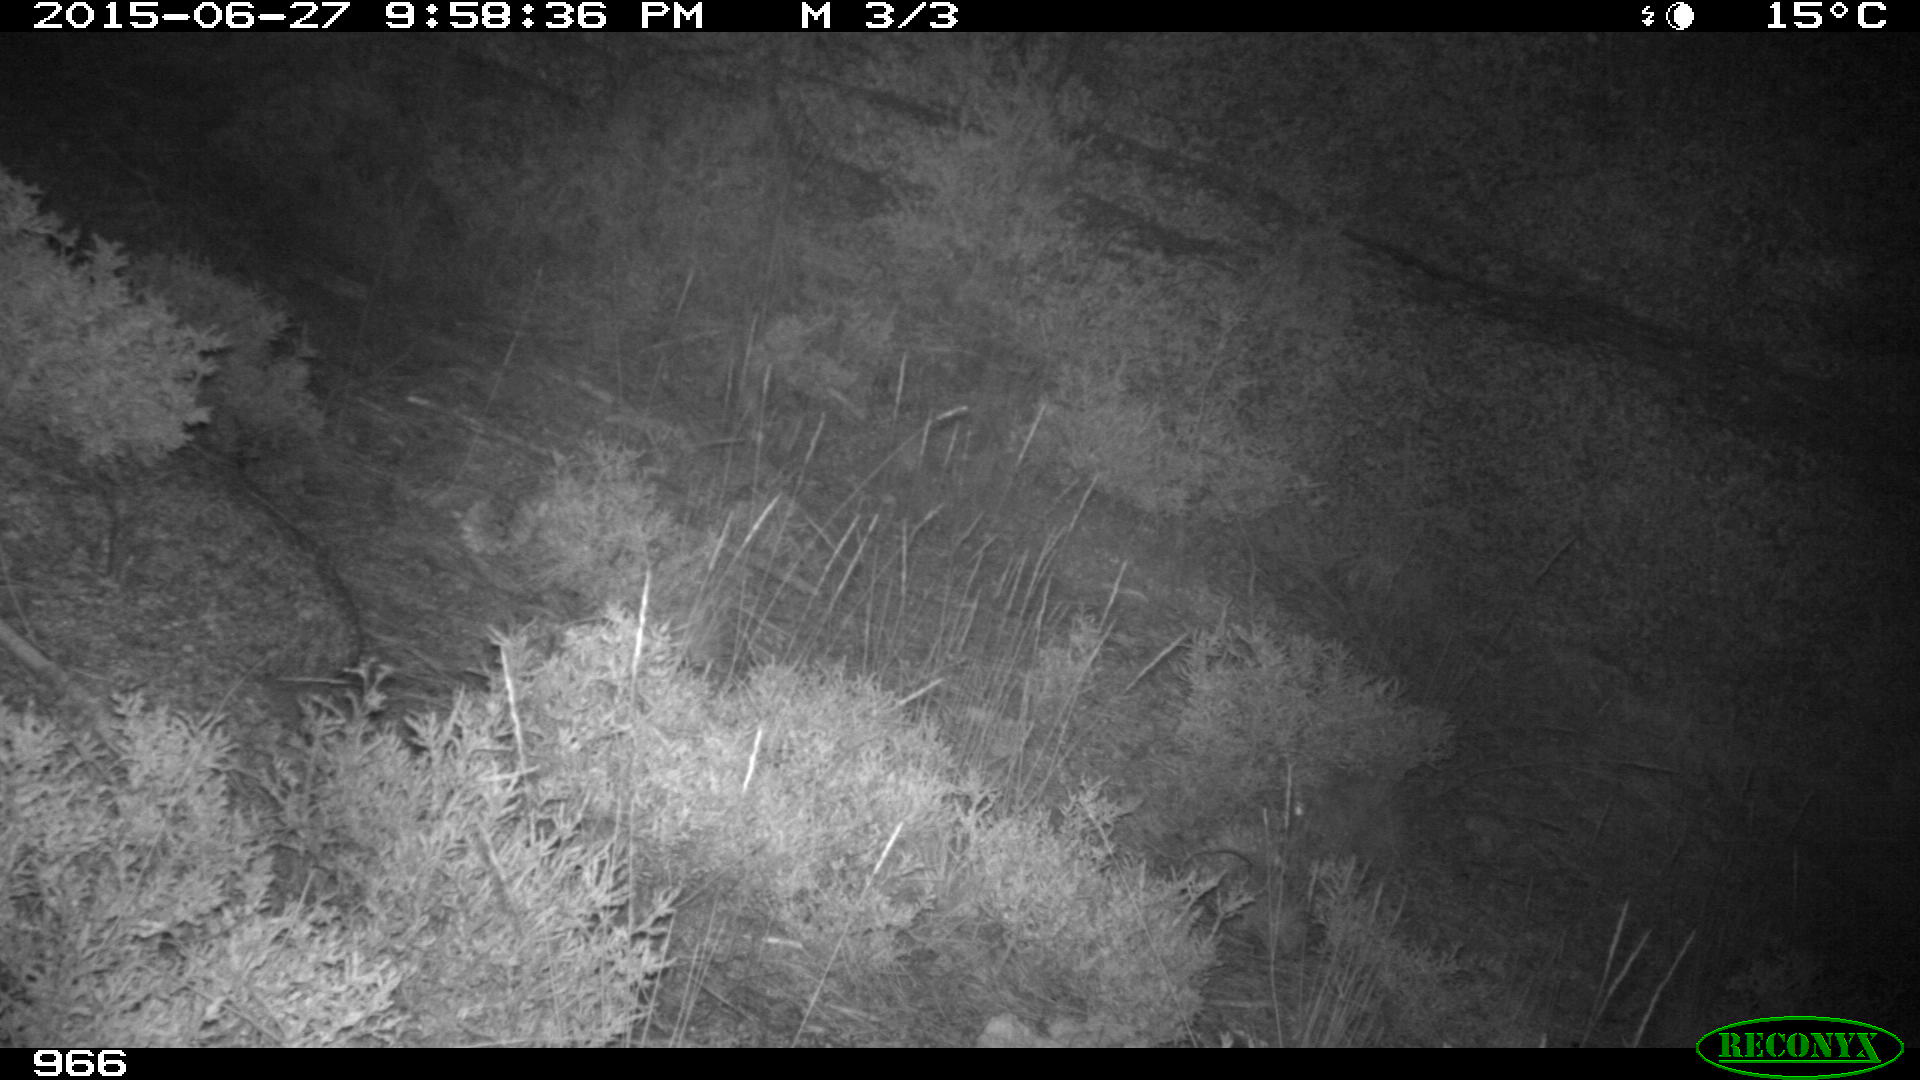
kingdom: Animalia
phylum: Chordata
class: Mammalia
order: Artiodactyla
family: Bovidae
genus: Bos
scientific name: Bos taurus
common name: Domesticated cattle
